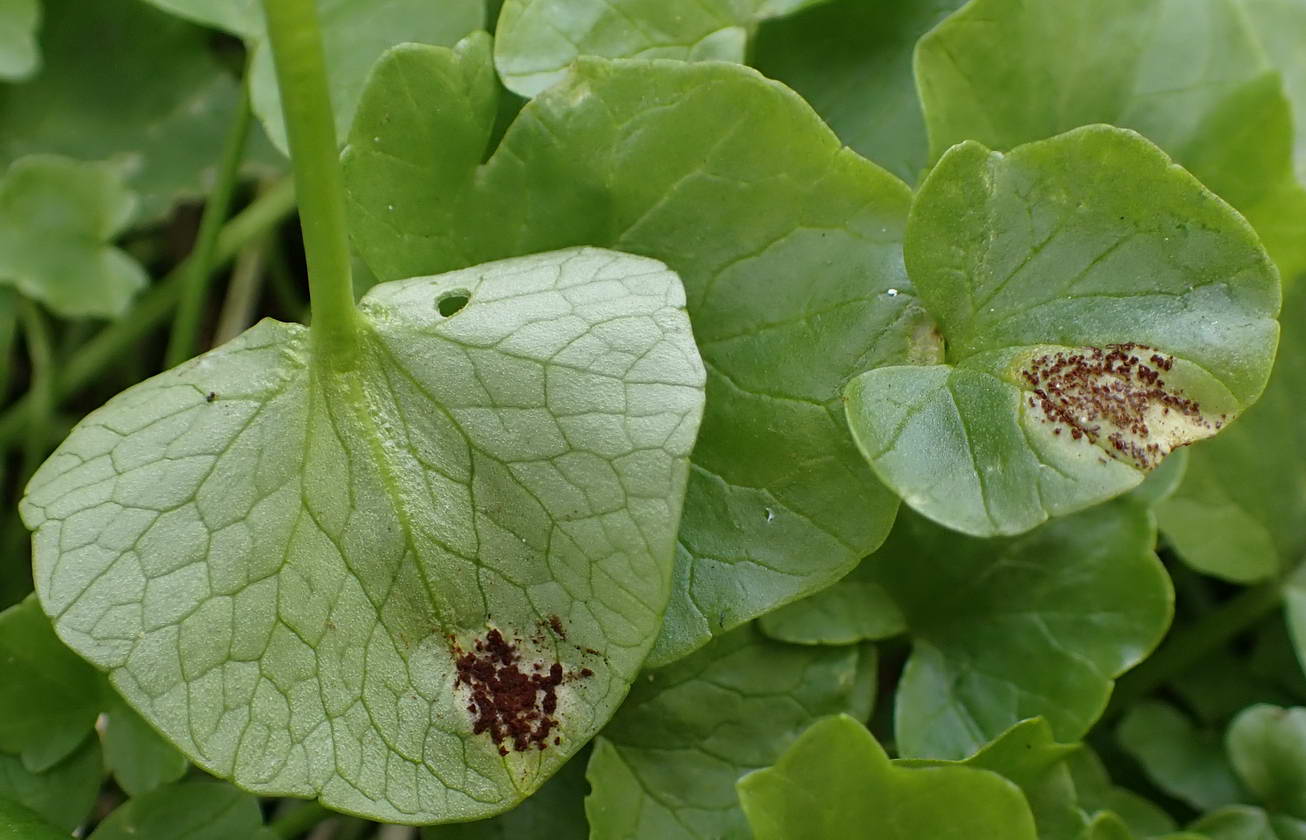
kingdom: Fungi
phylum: Basidiomycota
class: Pucciniomycetes
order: Pucciniales
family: Pucciniaceae
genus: Uromyces
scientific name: Uromyces ficariae
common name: vorterod-encellerust
